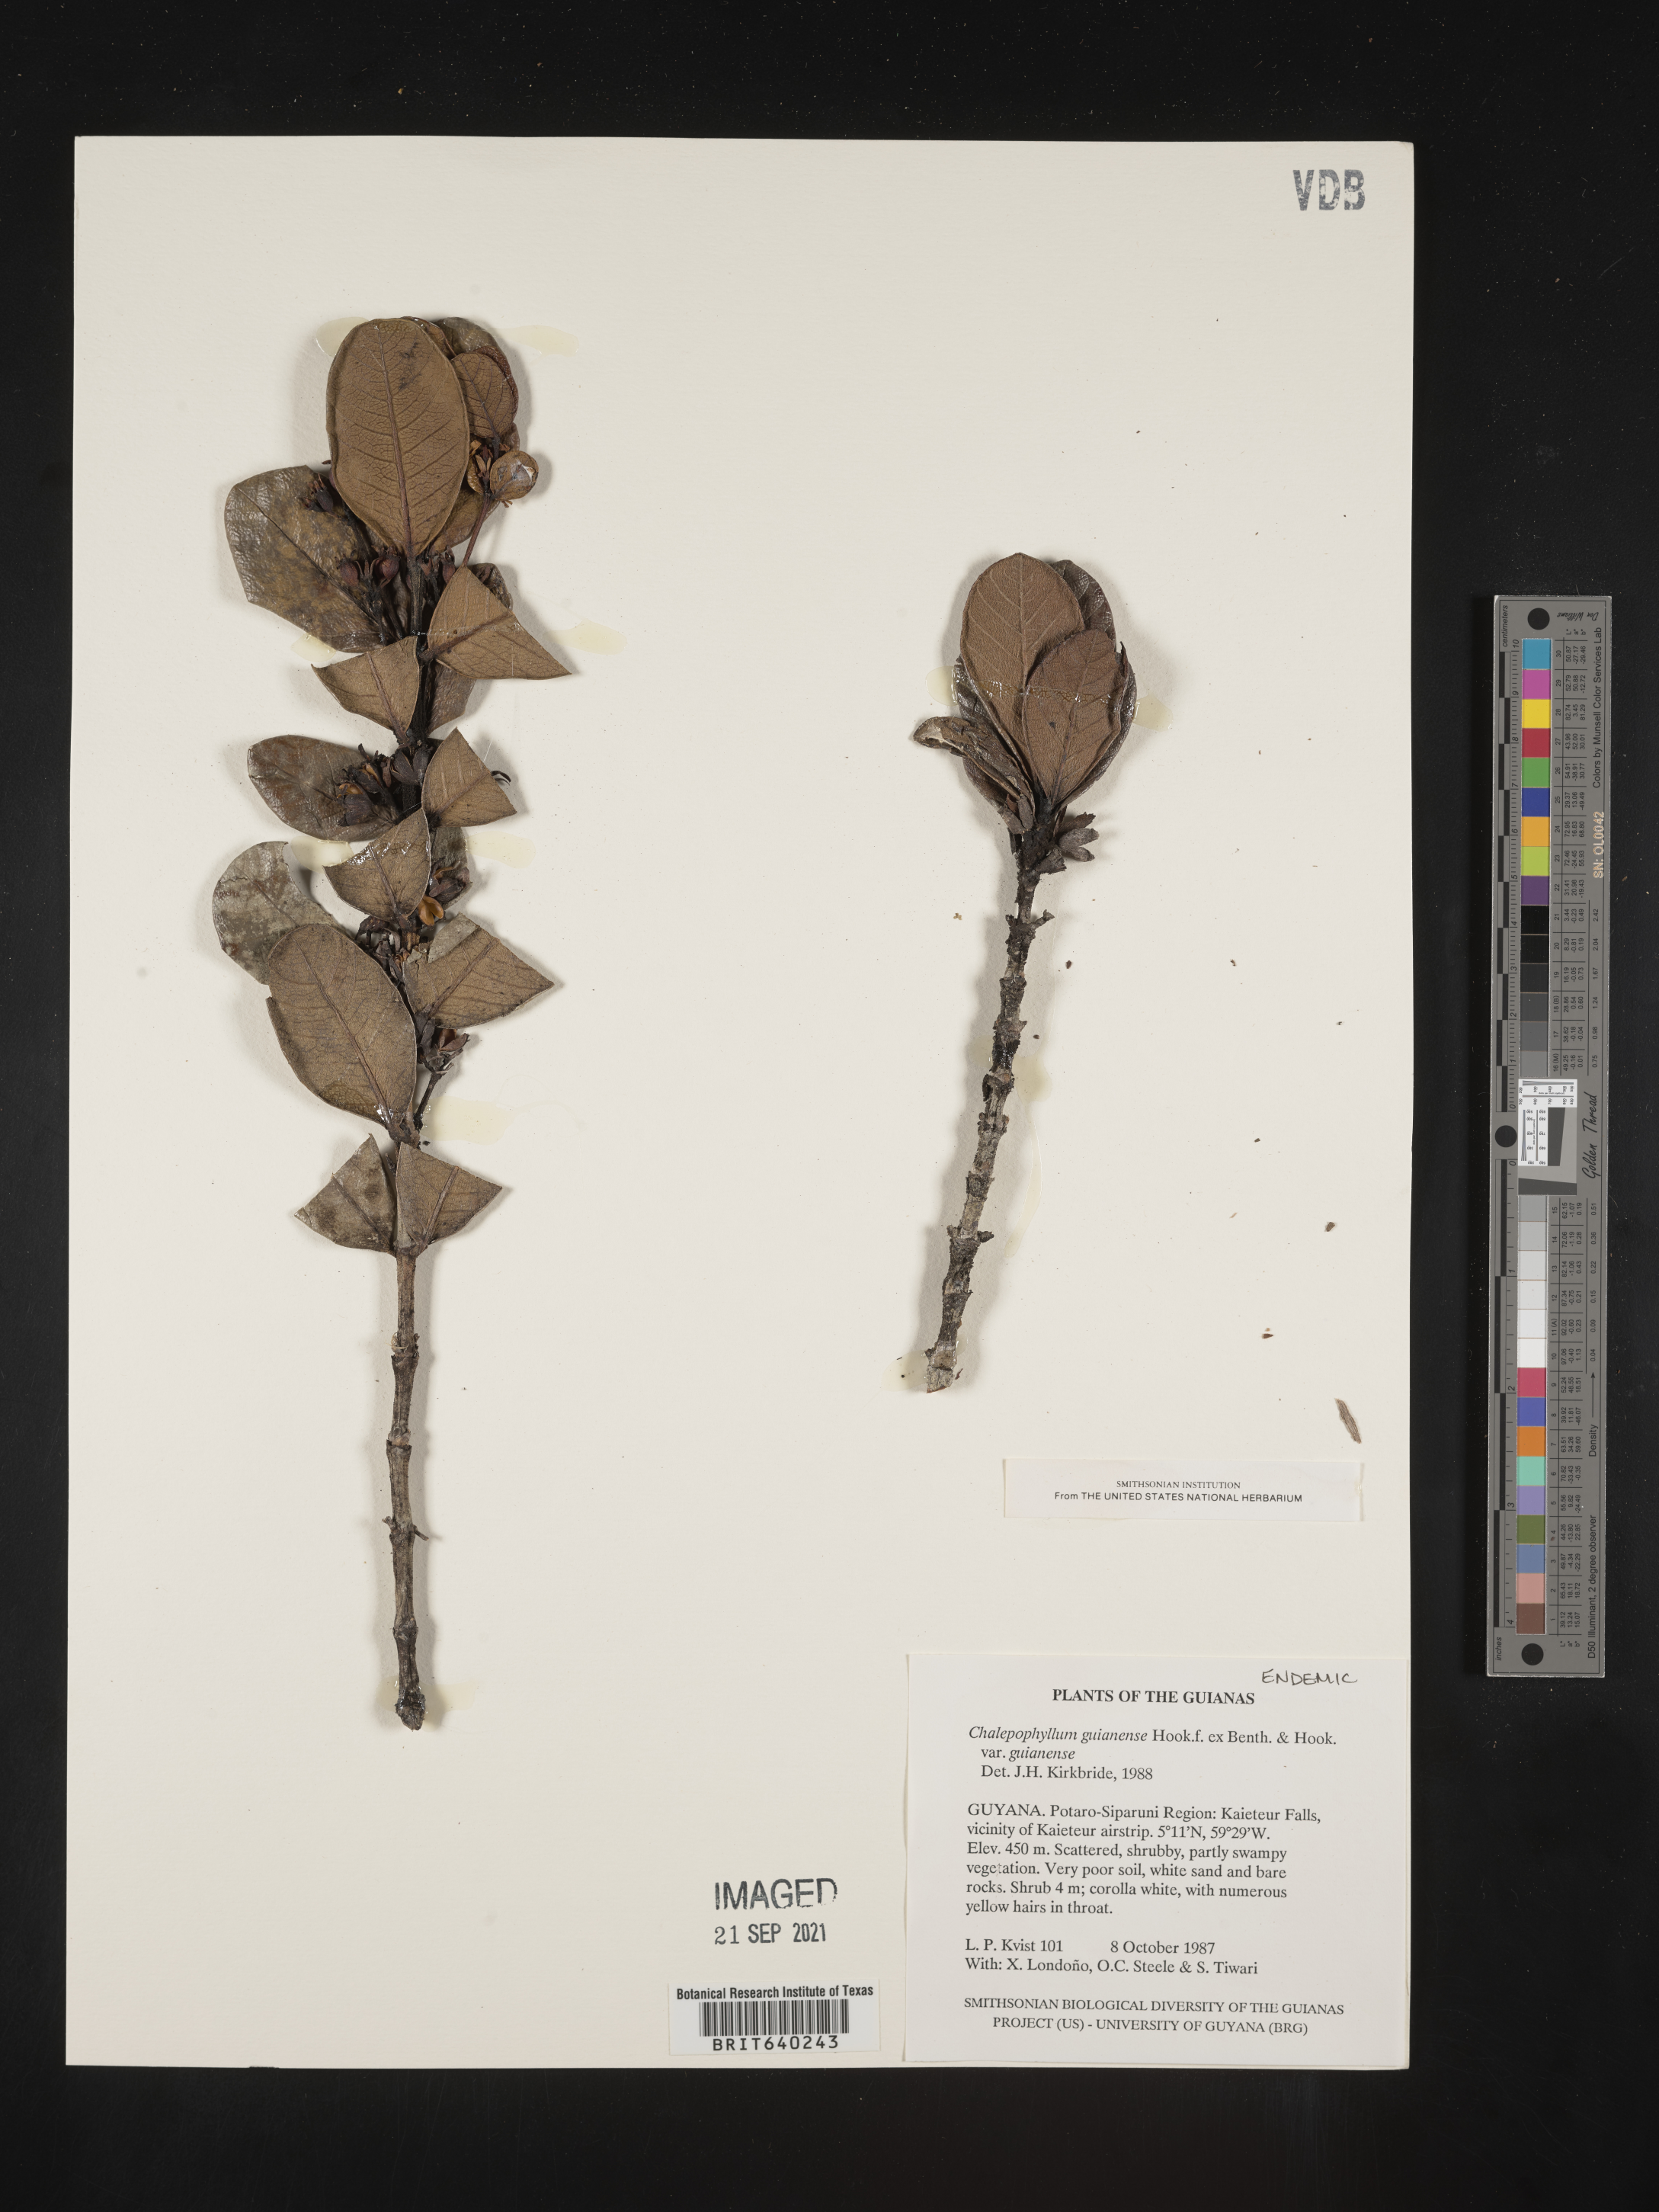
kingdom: Plantae
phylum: Tracheophyta
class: Magnoliopsida
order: Gentianales
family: Rubiaceae
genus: Chalepophyllum
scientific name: Chalepophyllum
